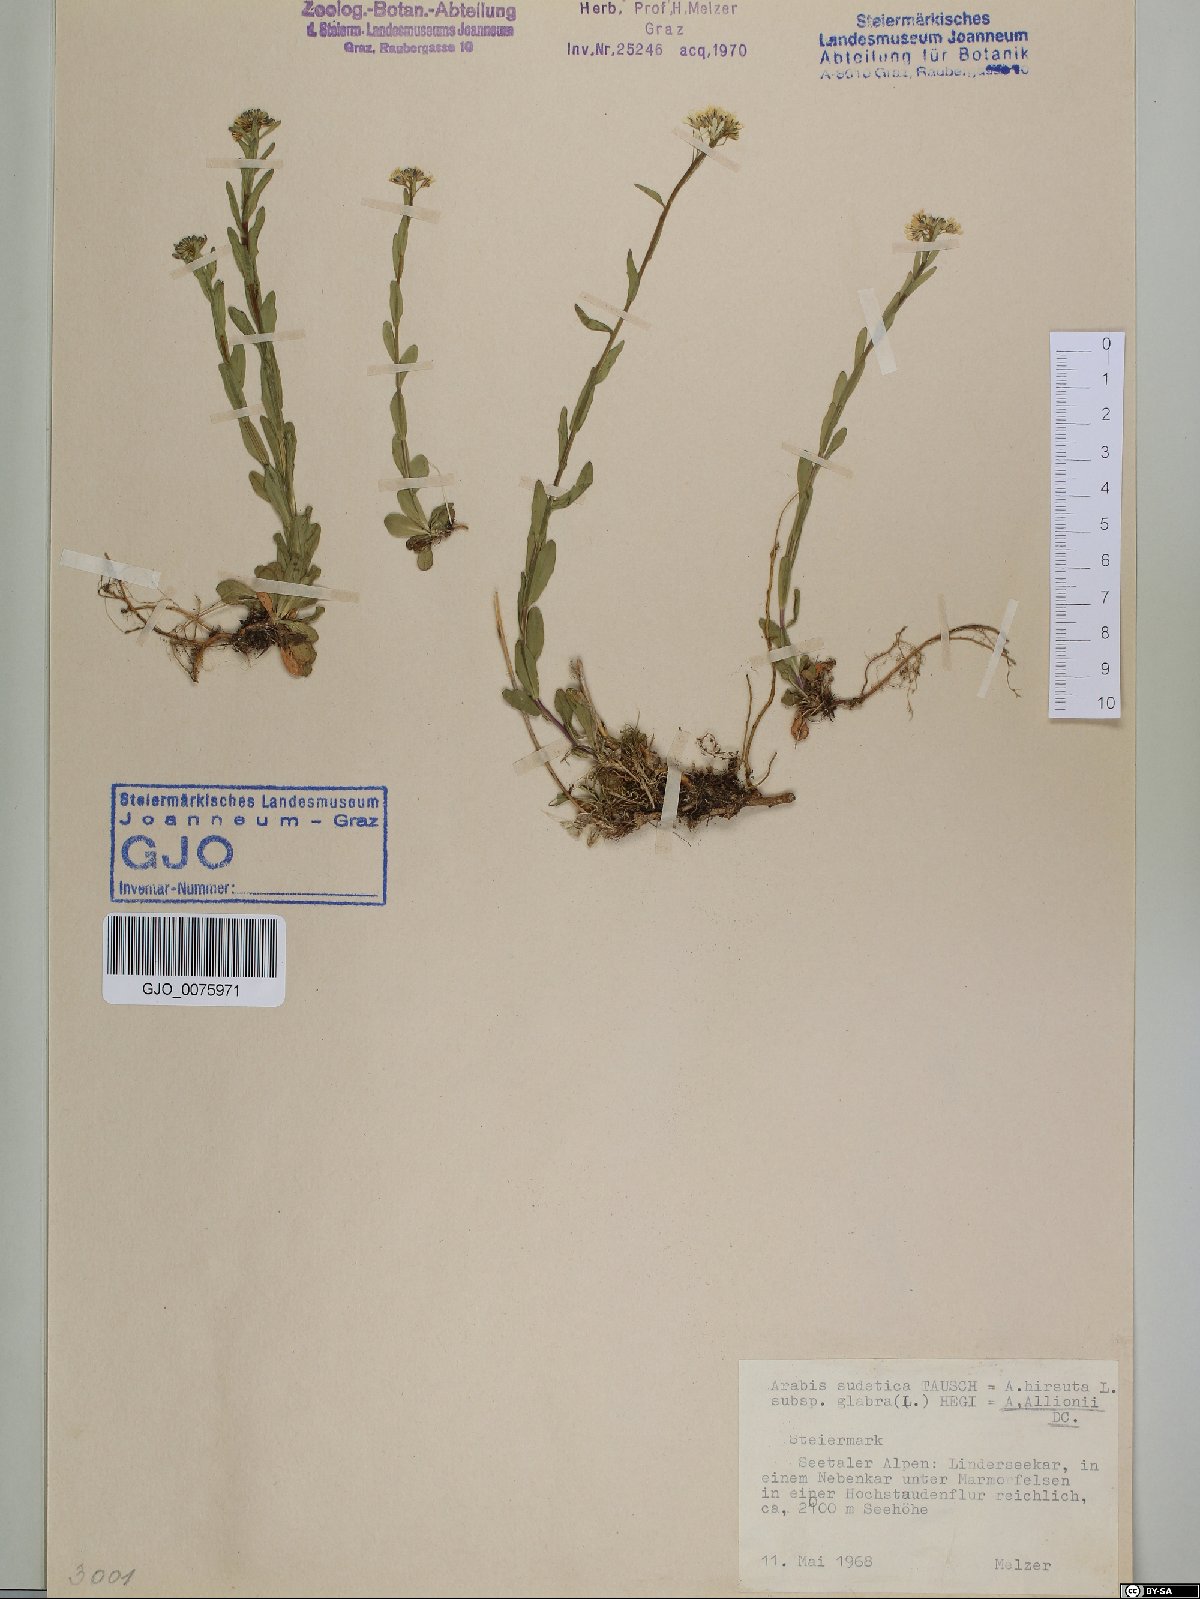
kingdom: Plantae
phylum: Tracheophyta
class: Magnoliopsida
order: Brassicales
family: Brassicaceae
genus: Arabis
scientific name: Arabis sudetica
